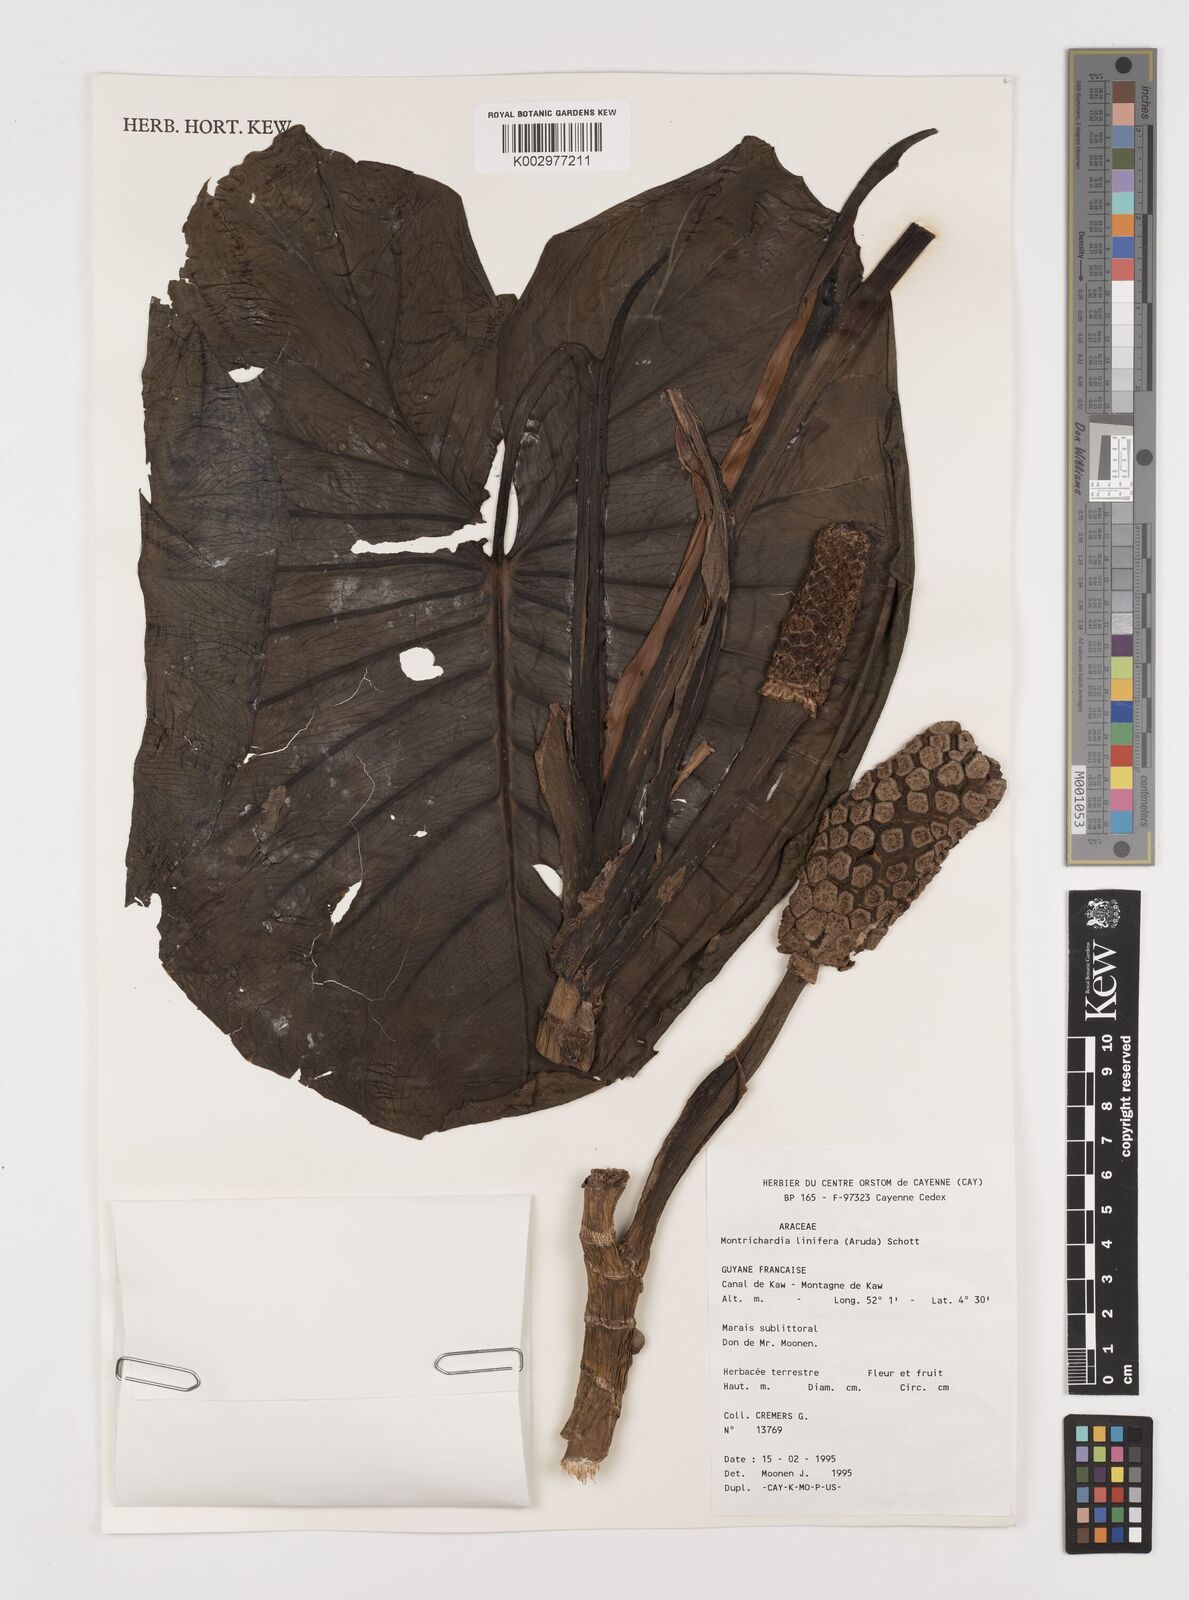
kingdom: Plantae
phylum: Tracheophyta
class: Liliopsida
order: Alismatales
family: Araceae
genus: Montrichardia
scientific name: Montrichardia linifera
